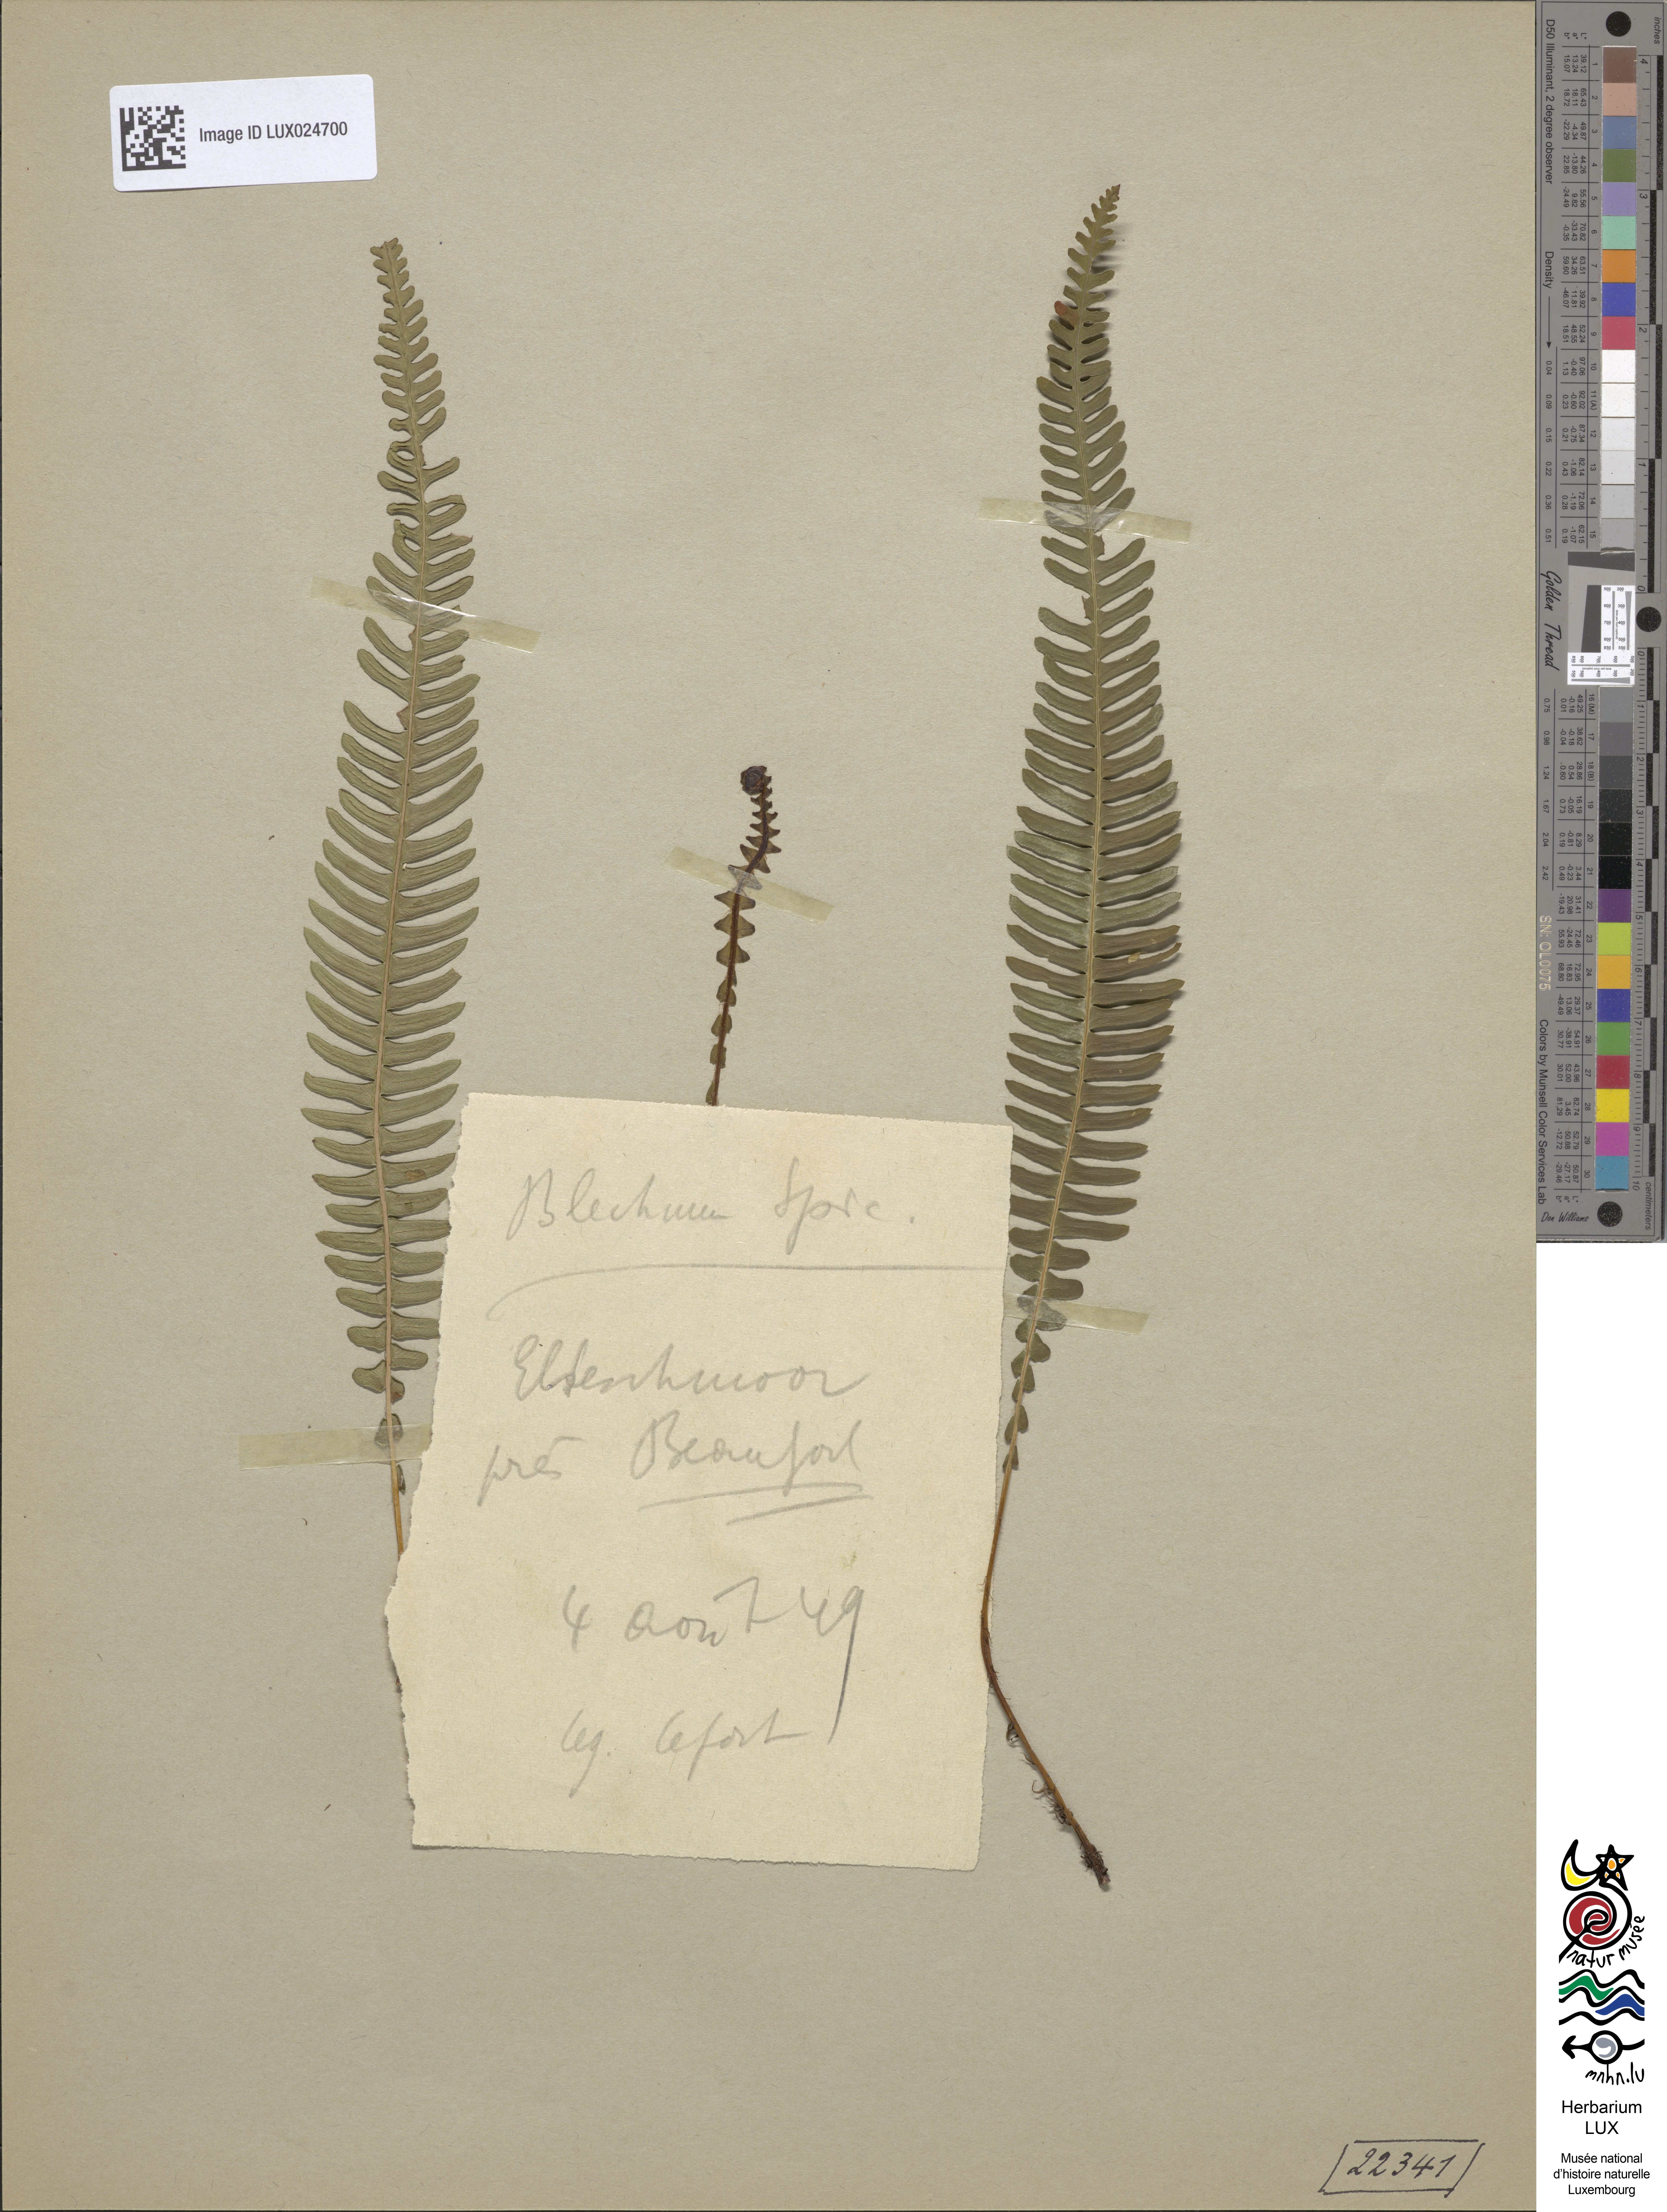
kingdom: Plantae
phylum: Tracheophyta
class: Polypodiopsida
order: Polypodiales
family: Blechnaceae
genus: Struthiopteris
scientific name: Struthiopteris spicant
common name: Deer fern
